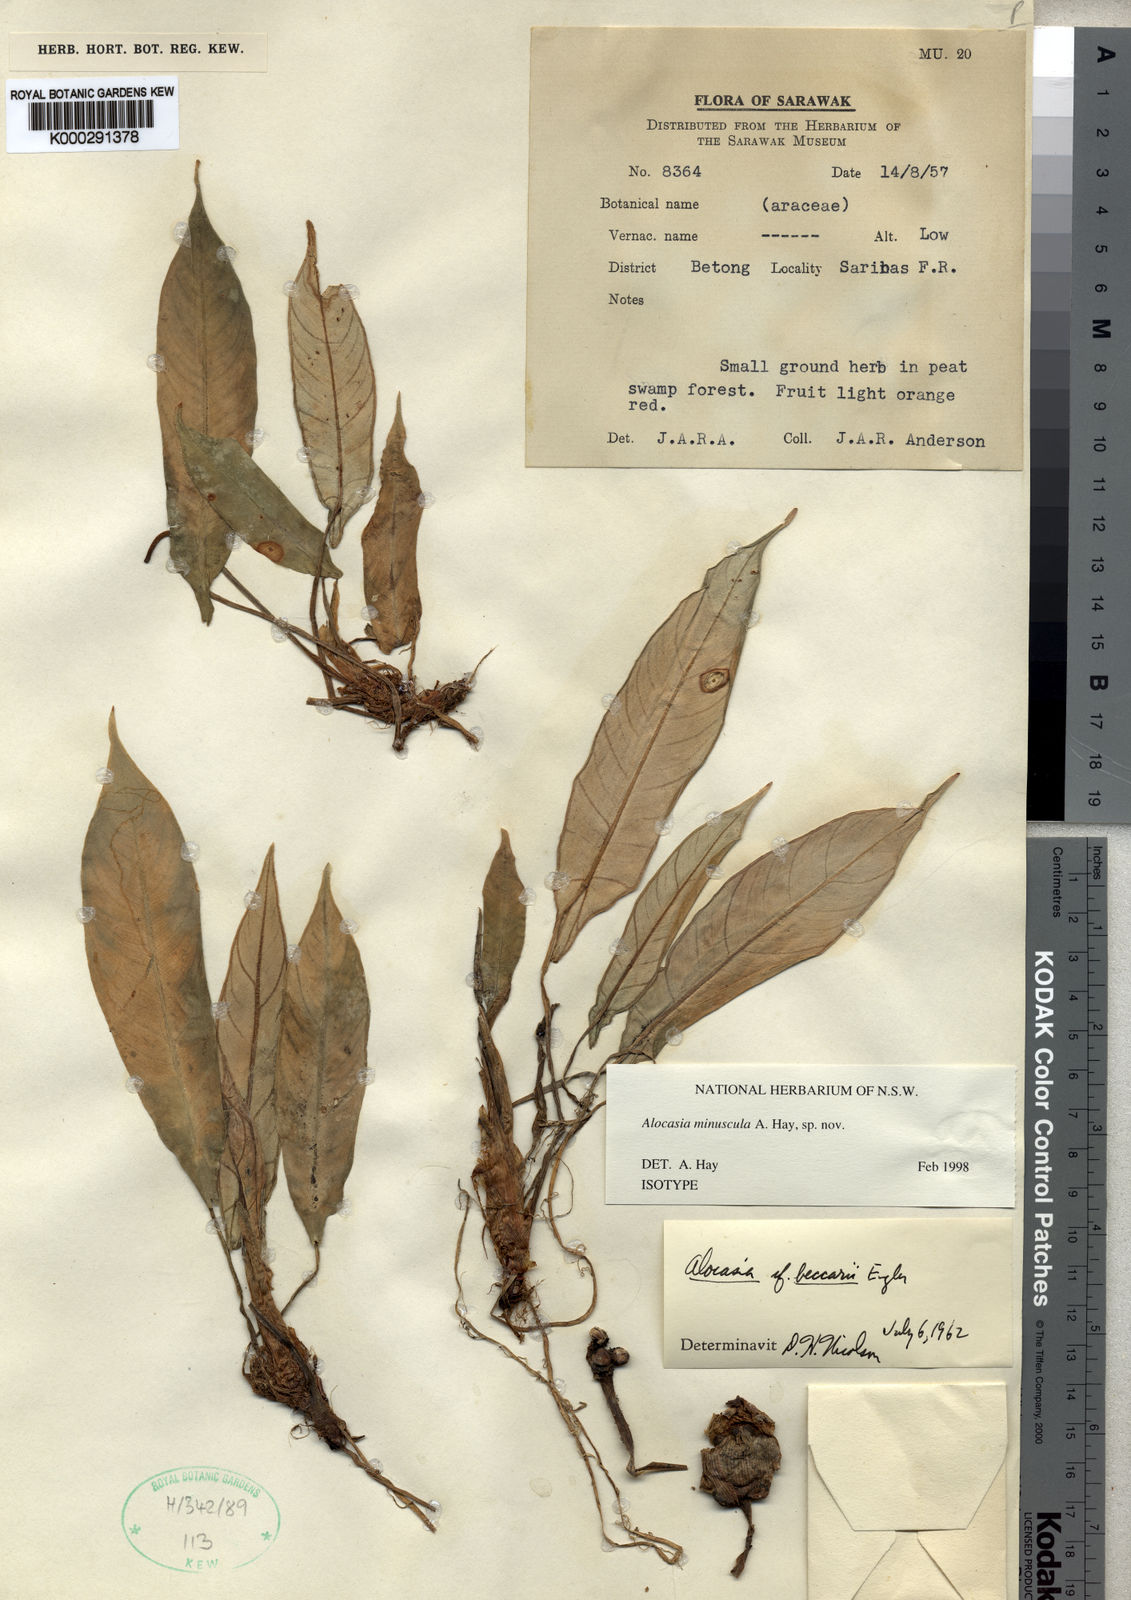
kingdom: Plantae
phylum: Tracheophyta
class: Liliopsida
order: Alismatales
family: Araceae
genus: Alocasia
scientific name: Alocasia
